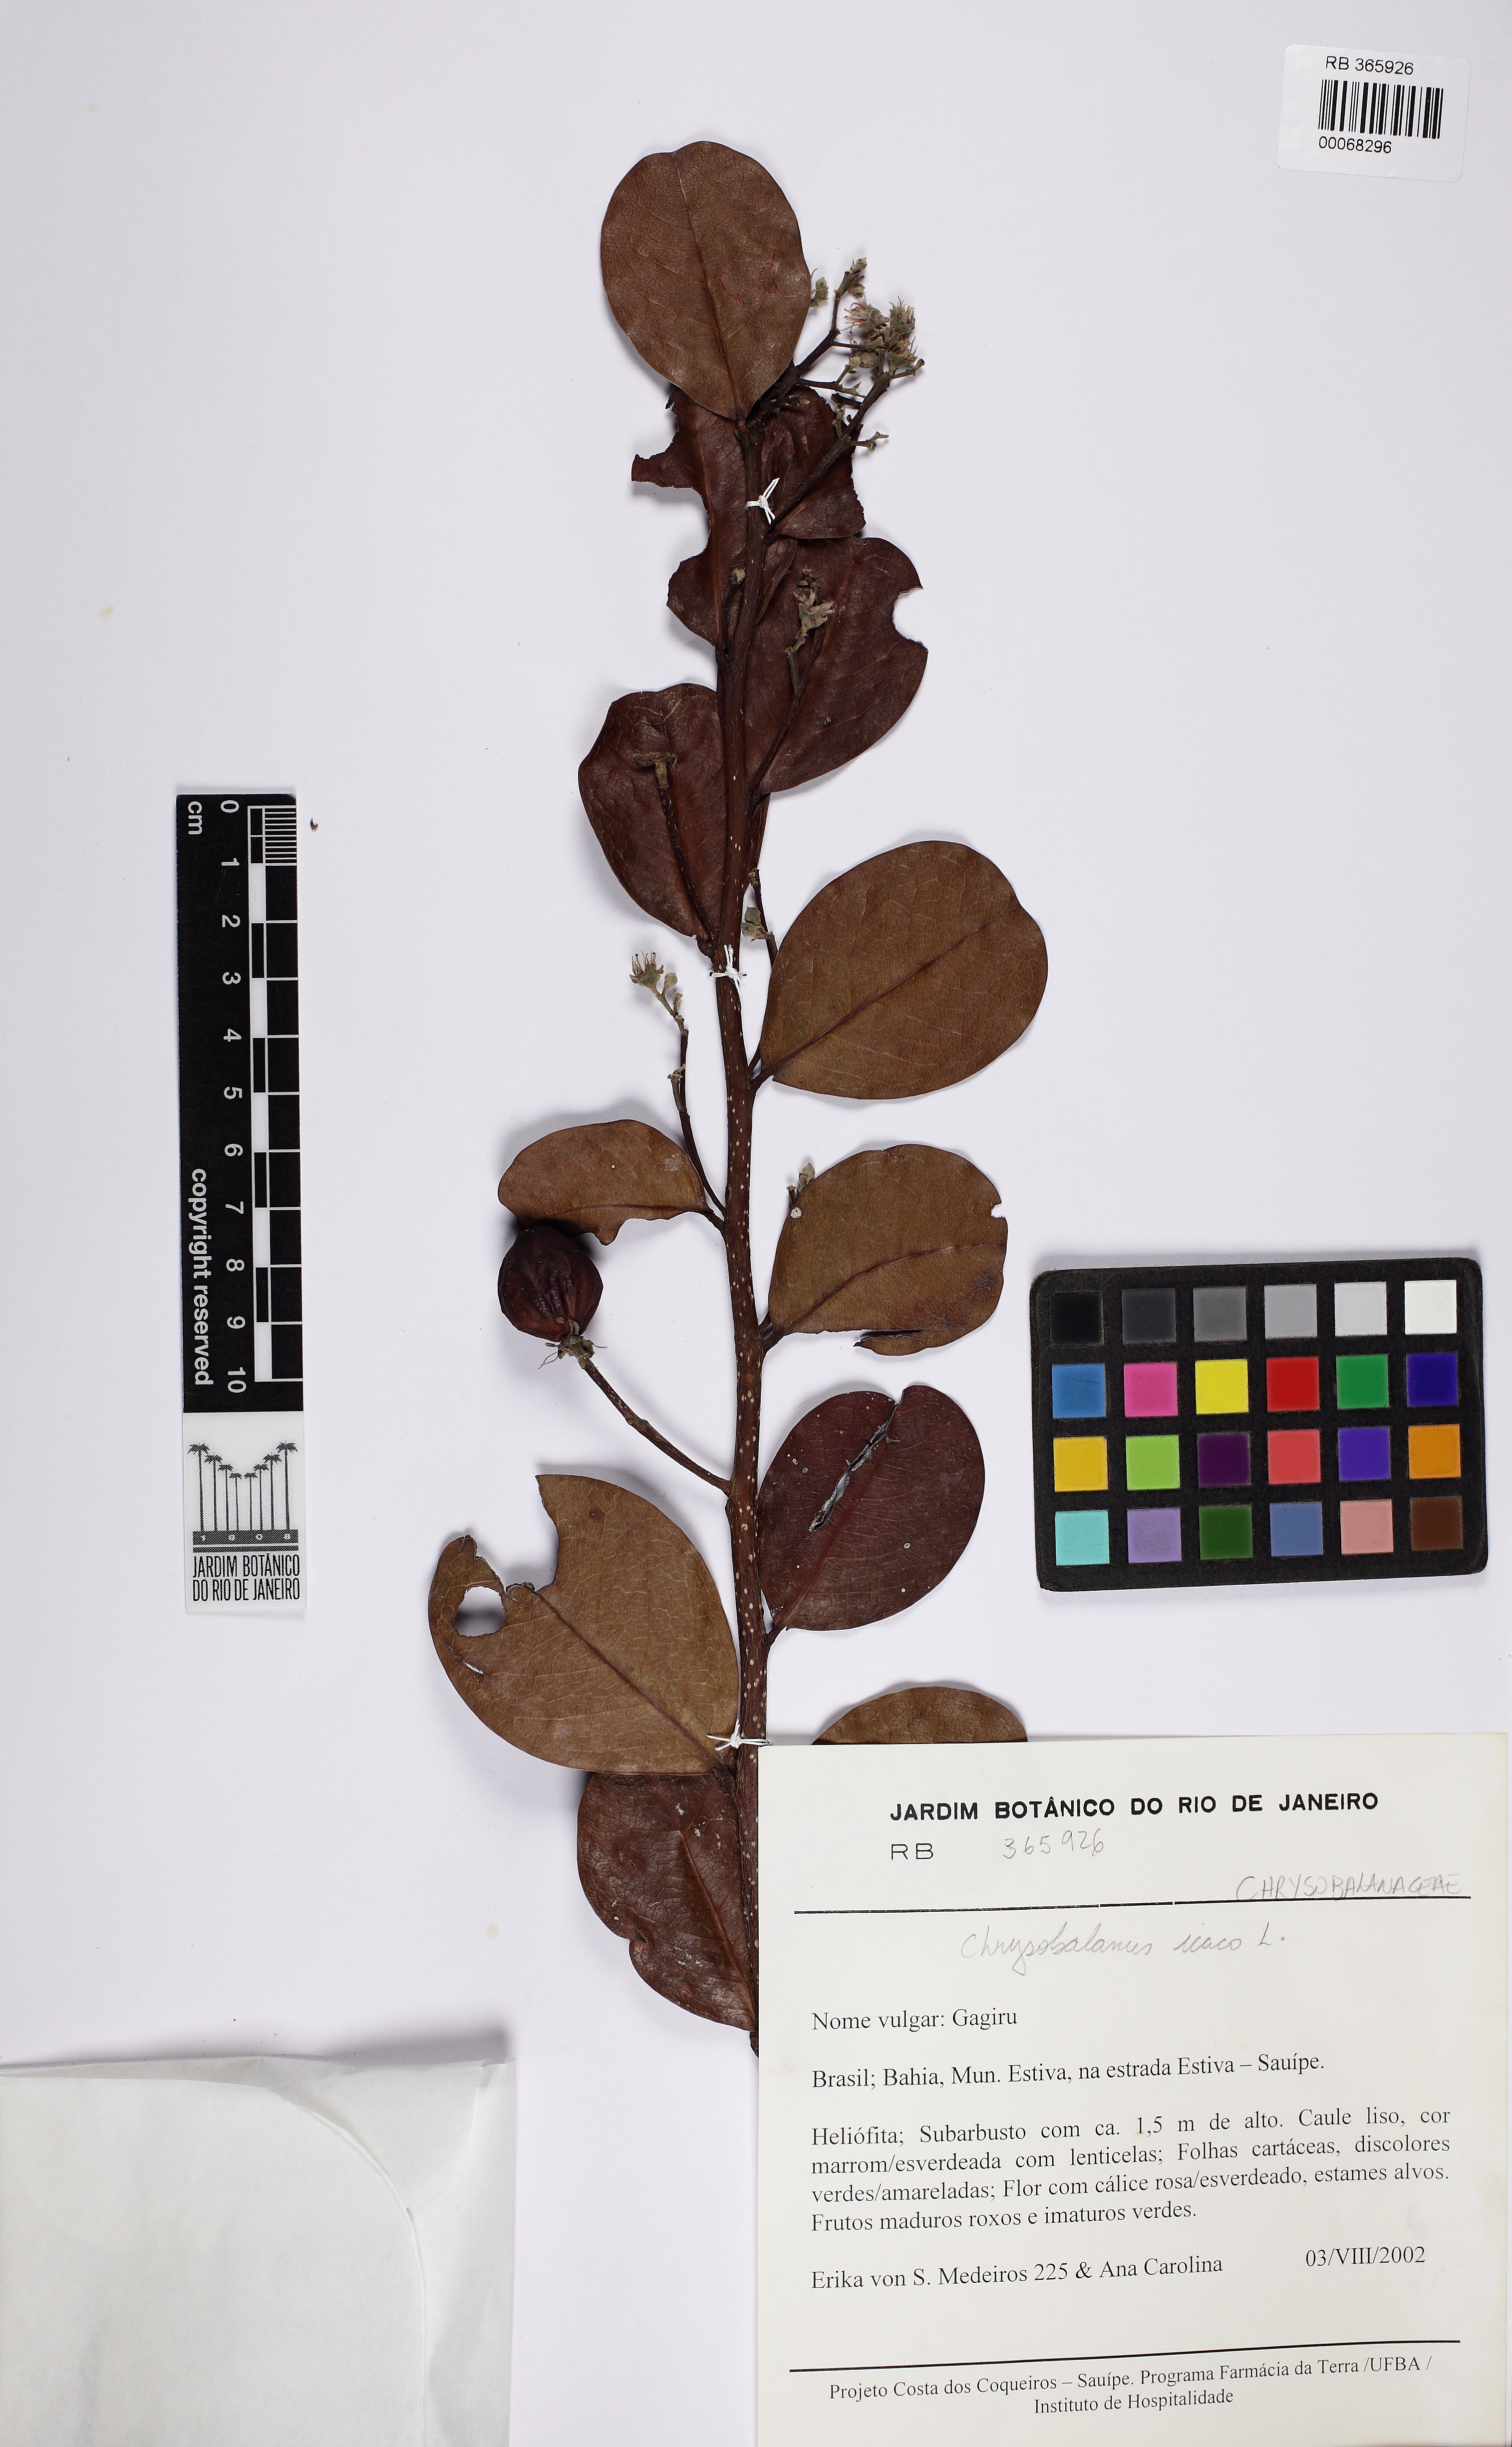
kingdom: Plantae
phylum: Tracheophyta
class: Magnoliopsida
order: Malpighiales
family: Chrysobalanaceae
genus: Chrysobalanus
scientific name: Chrysobalanus icaco
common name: Coco plum
